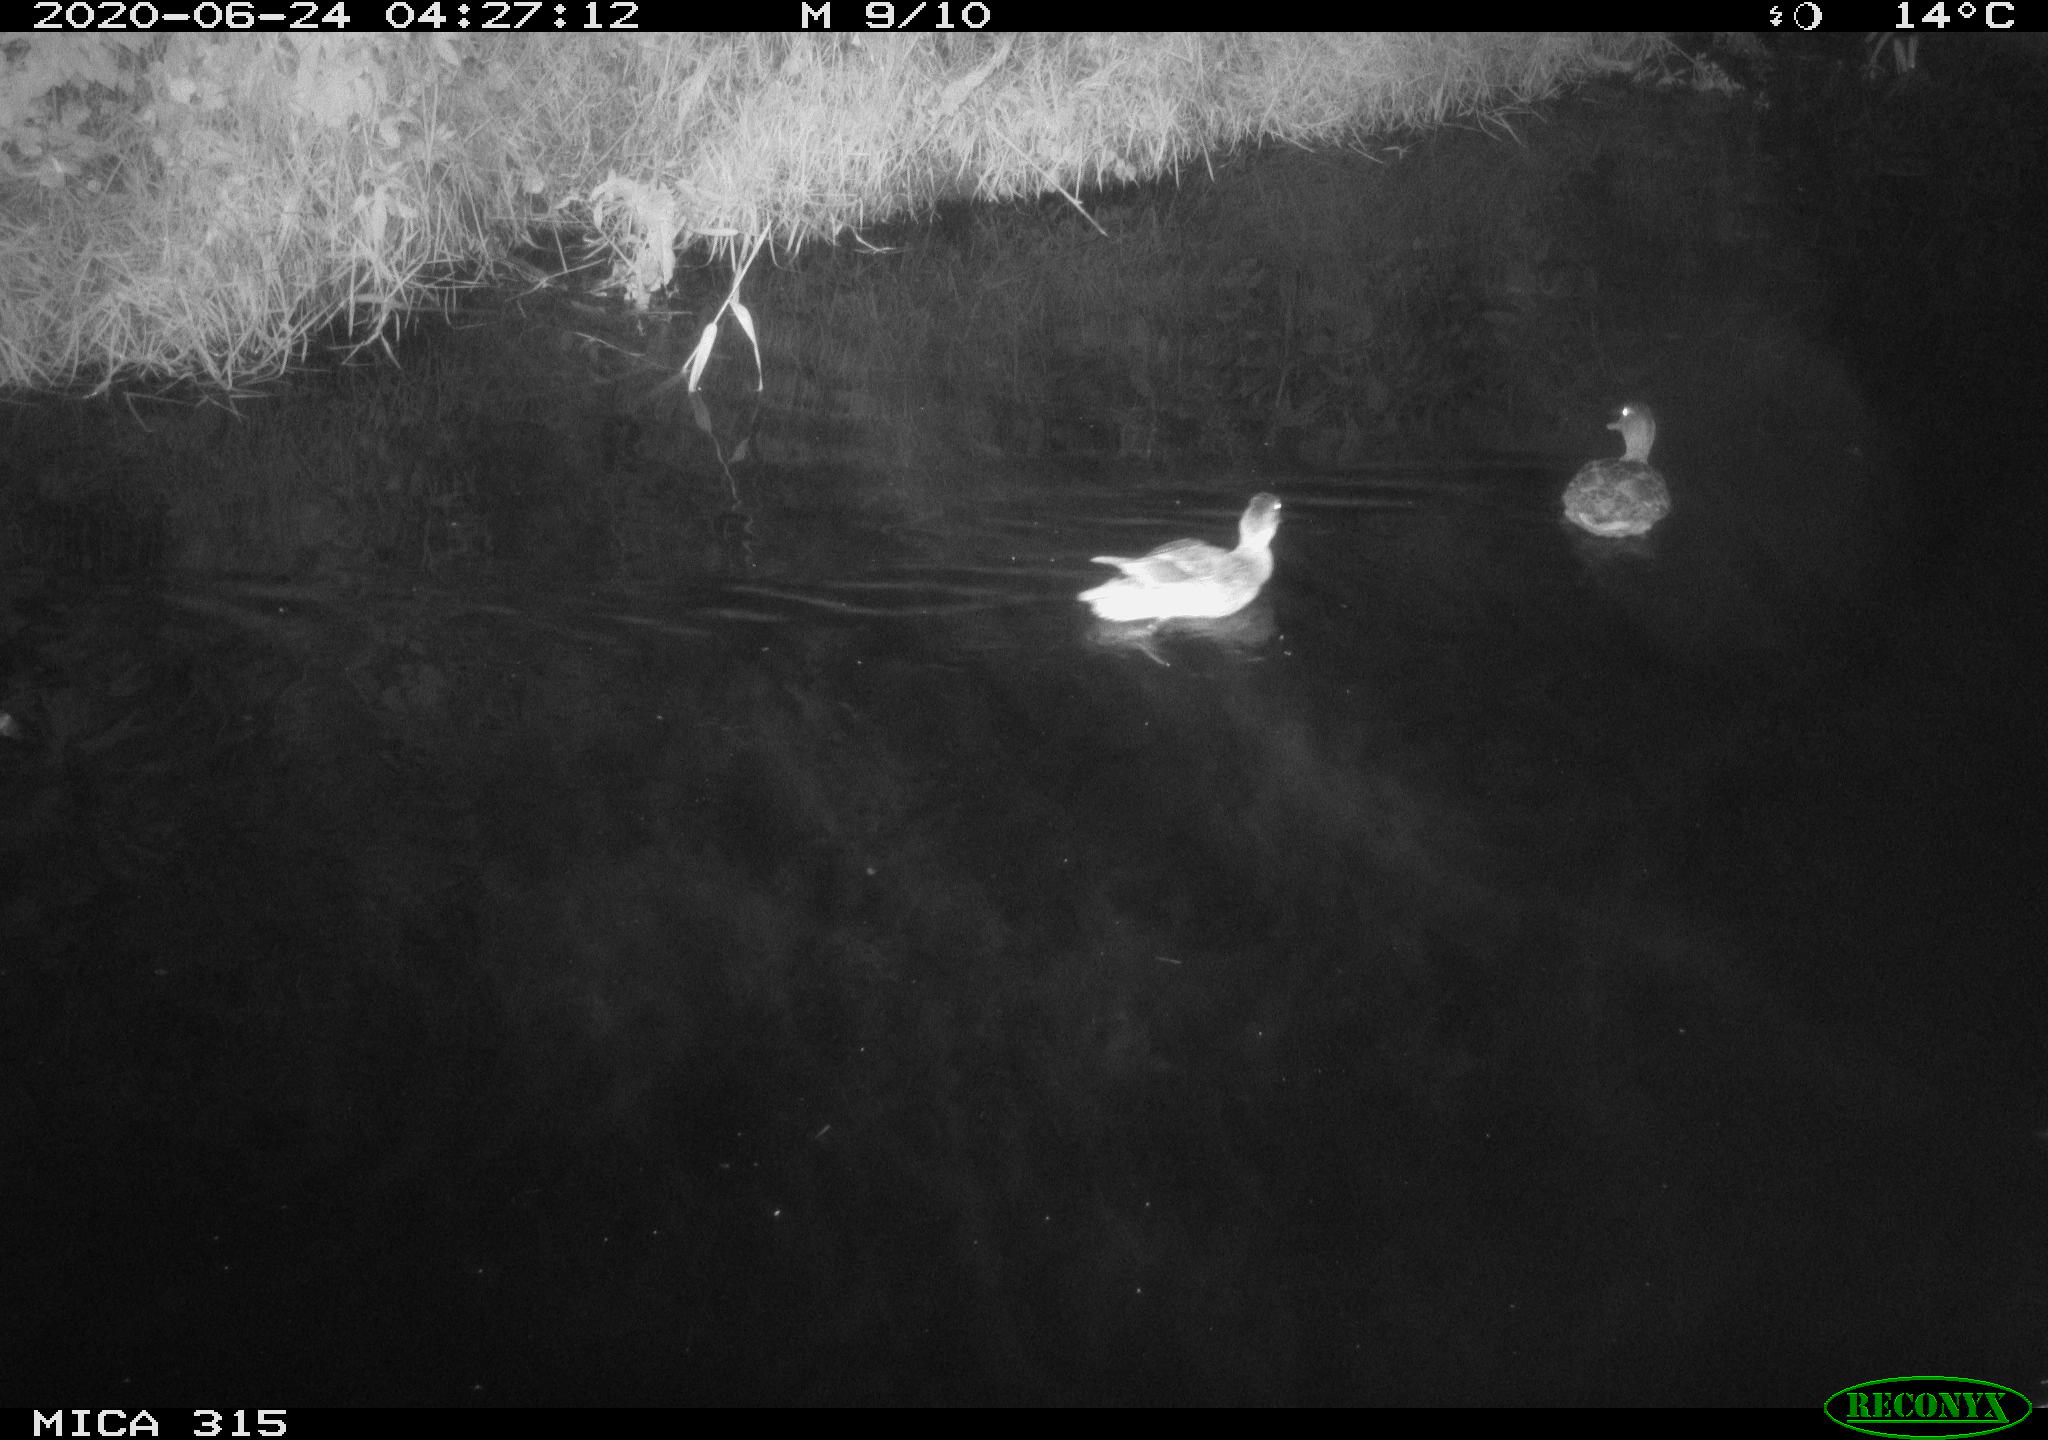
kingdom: Animalia
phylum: Chordata
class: Aves
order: Anseriformes
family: Anatidae
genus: Anas
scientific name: Anas platyrhynchos
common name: Mallard
